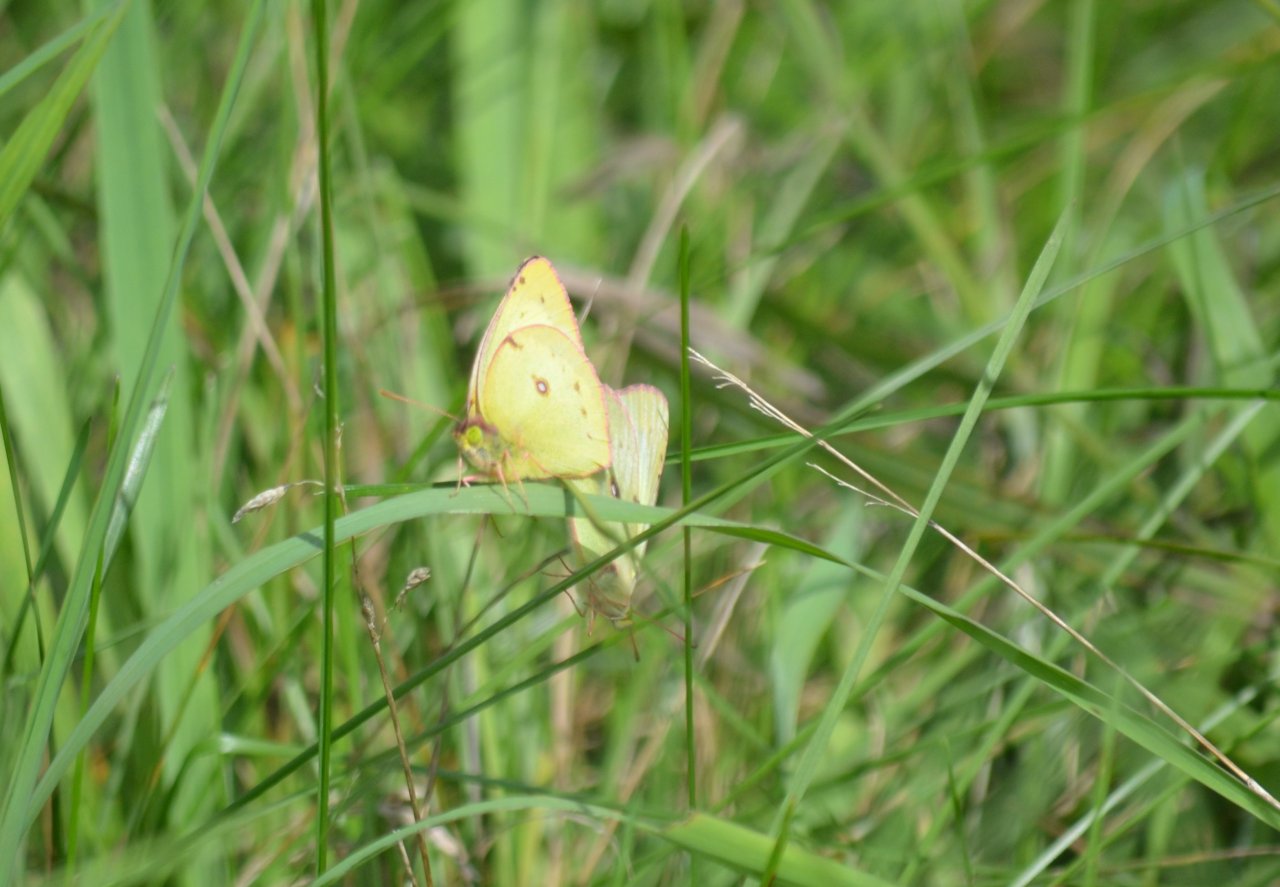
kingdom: Animalia
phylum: Arthropoda
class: Insecta
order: Lepidoptera
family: Pieridae
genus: Colias
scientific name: Colias
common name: Clouded Yellows
